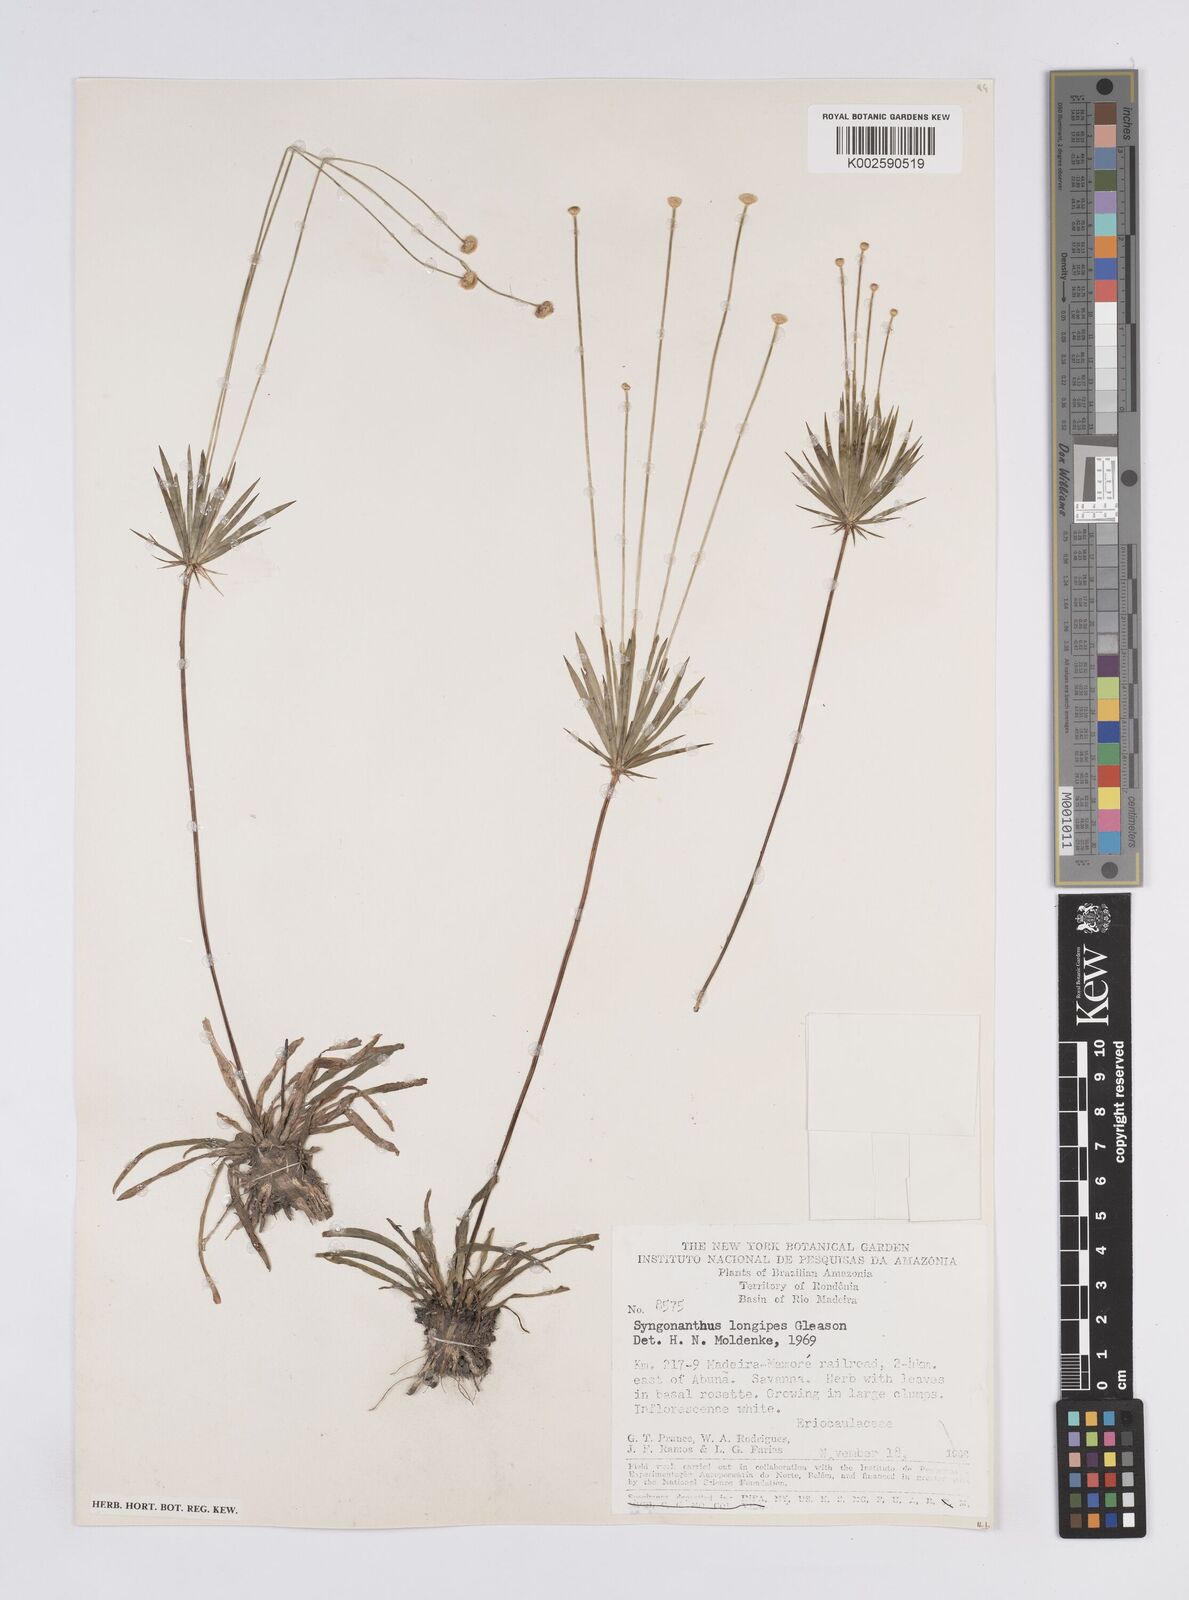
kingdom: Plantae
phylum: Tracheophyta
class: Liliopsida
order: Poales
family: Eriocaulaceae
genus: Syngonanthus
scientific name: Syngonanthus longipes
